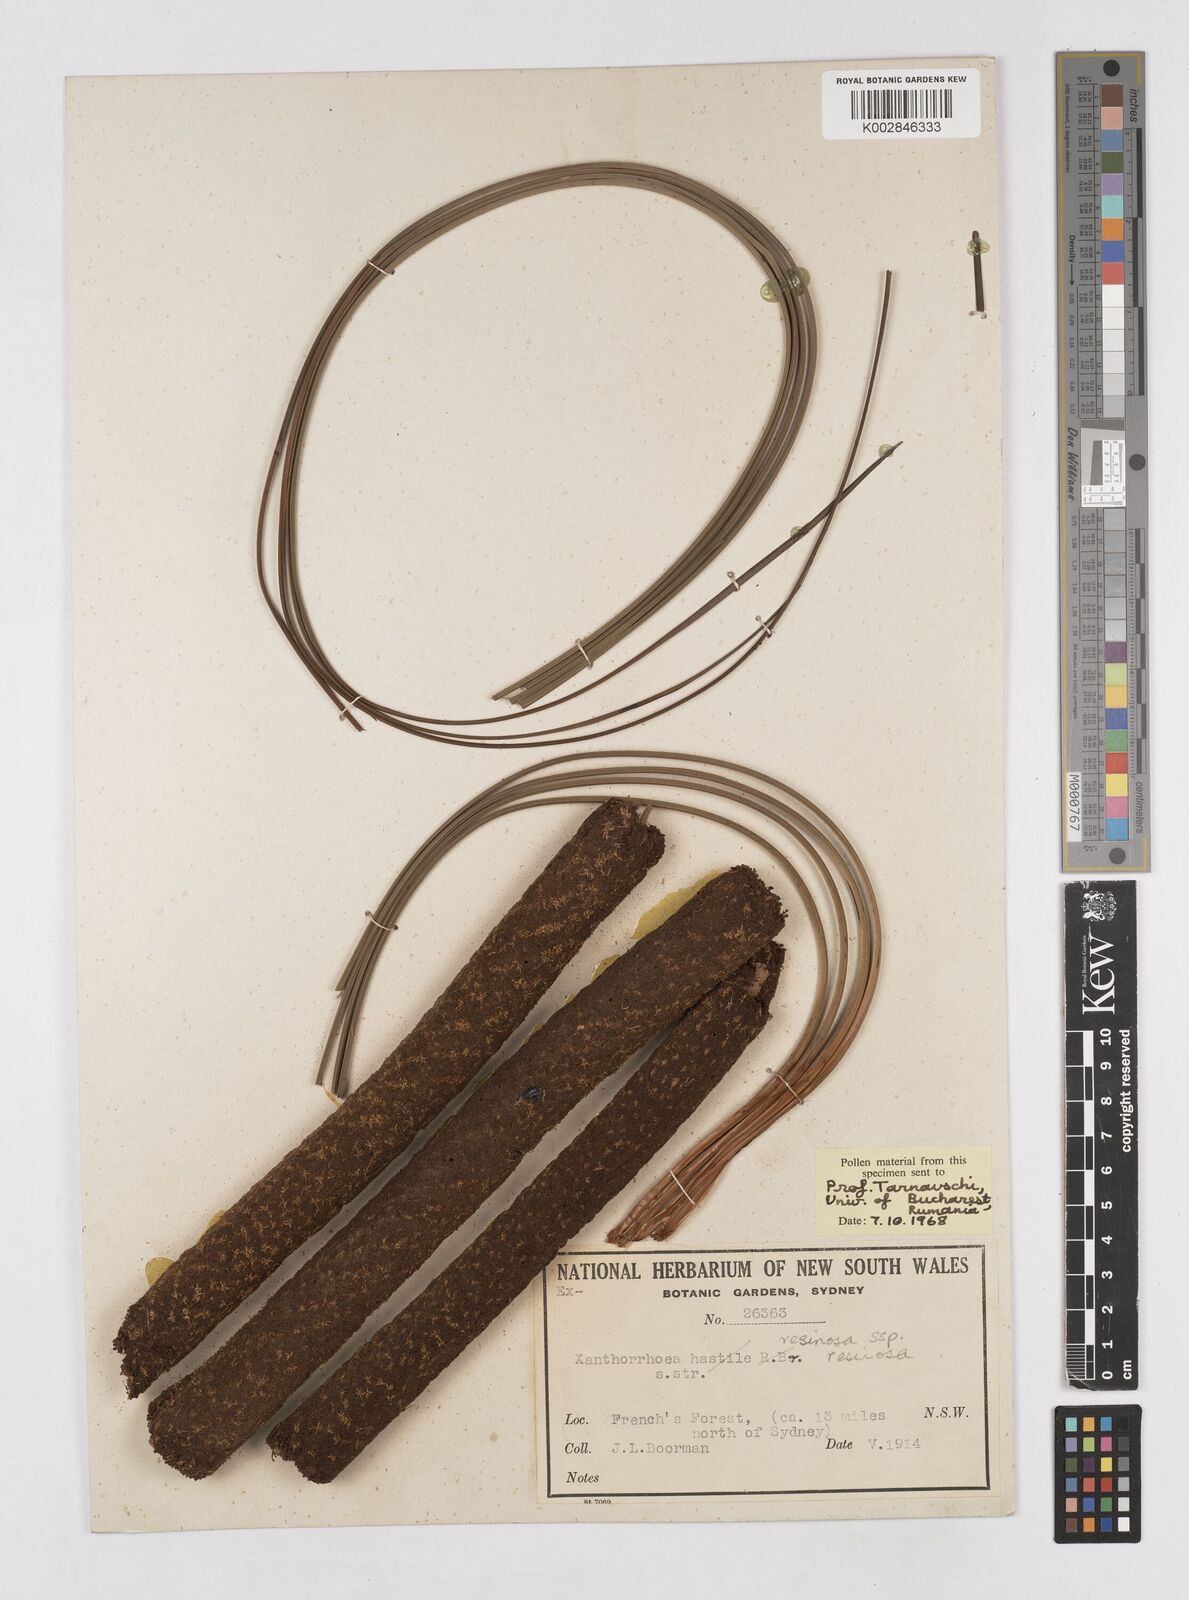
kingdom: Plantae
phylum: Tracheophyta
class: Liliopsida
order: Asparagales
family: Asphodelaceae
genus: Xanthorrhoea
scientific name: Xanthorrhoea resinosa
